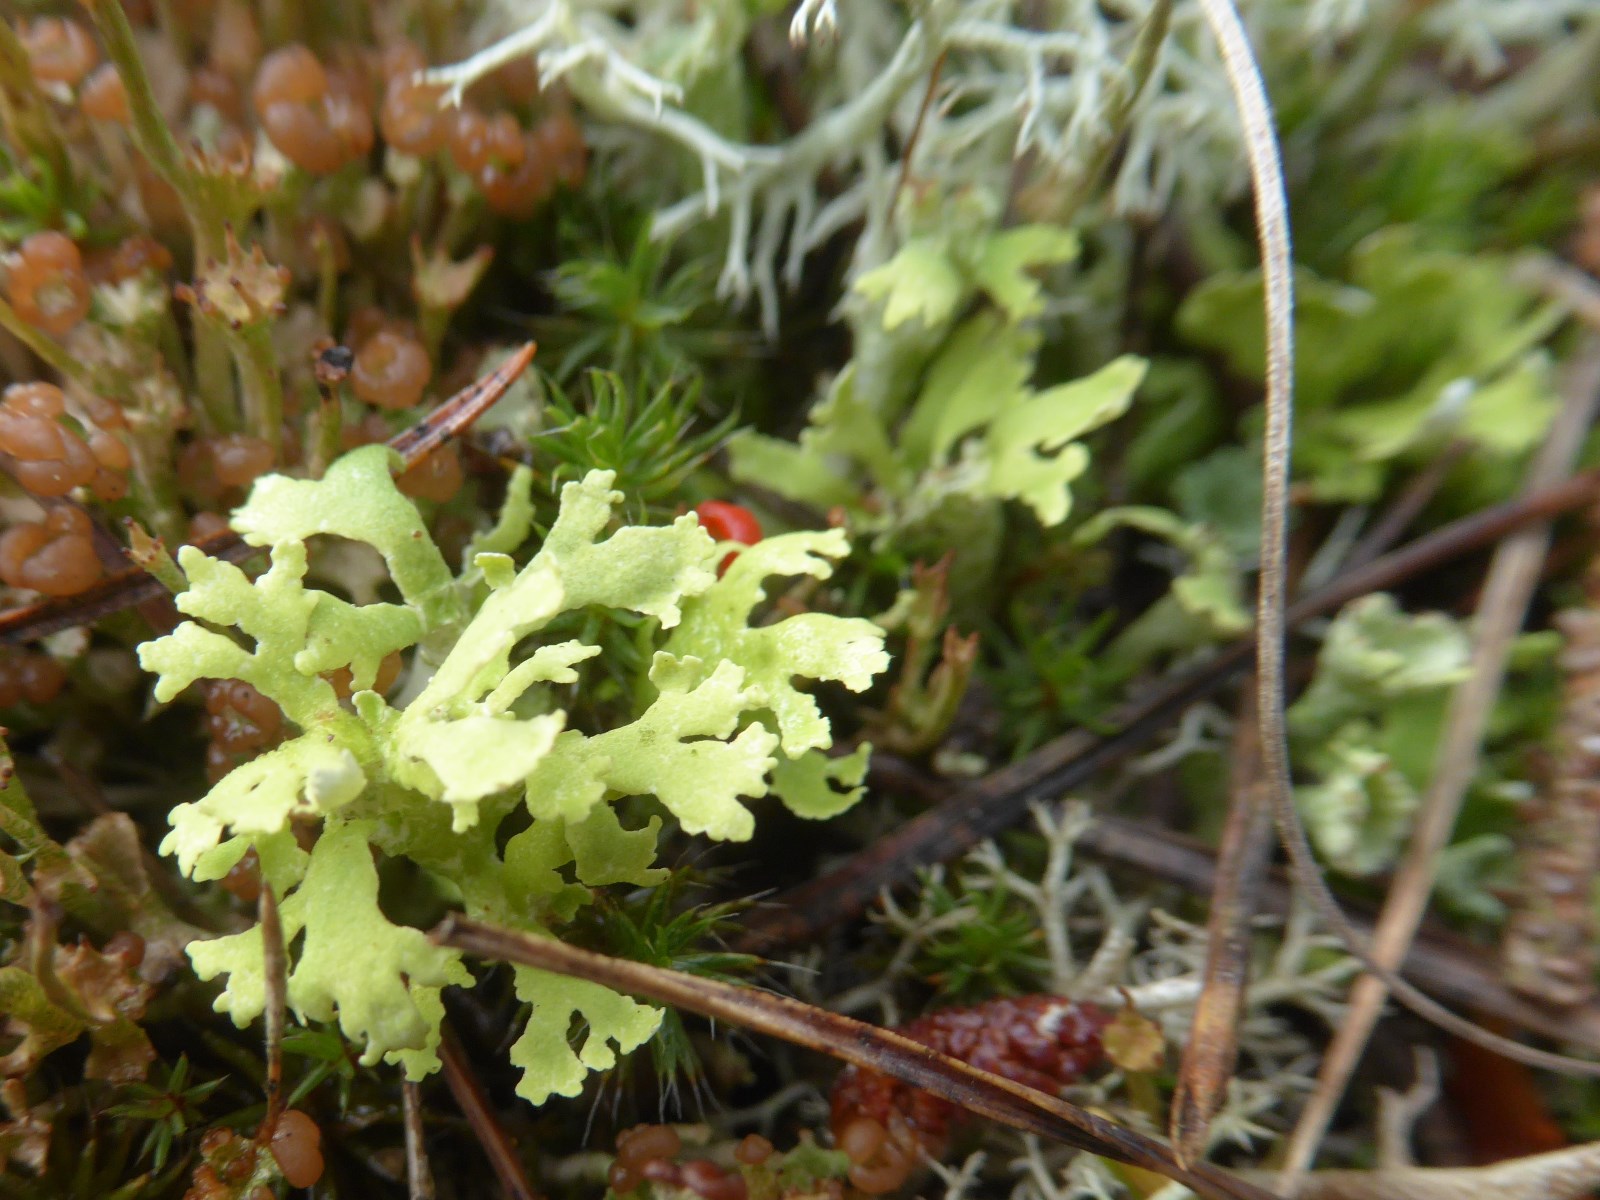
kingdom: Fungi
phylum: Ascomycota
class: Lecanoromycetes
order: Lecanorales
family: Cladoniaceae
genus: Cladonia
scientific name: Cladonia foliacea
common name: fliget bægerlav
